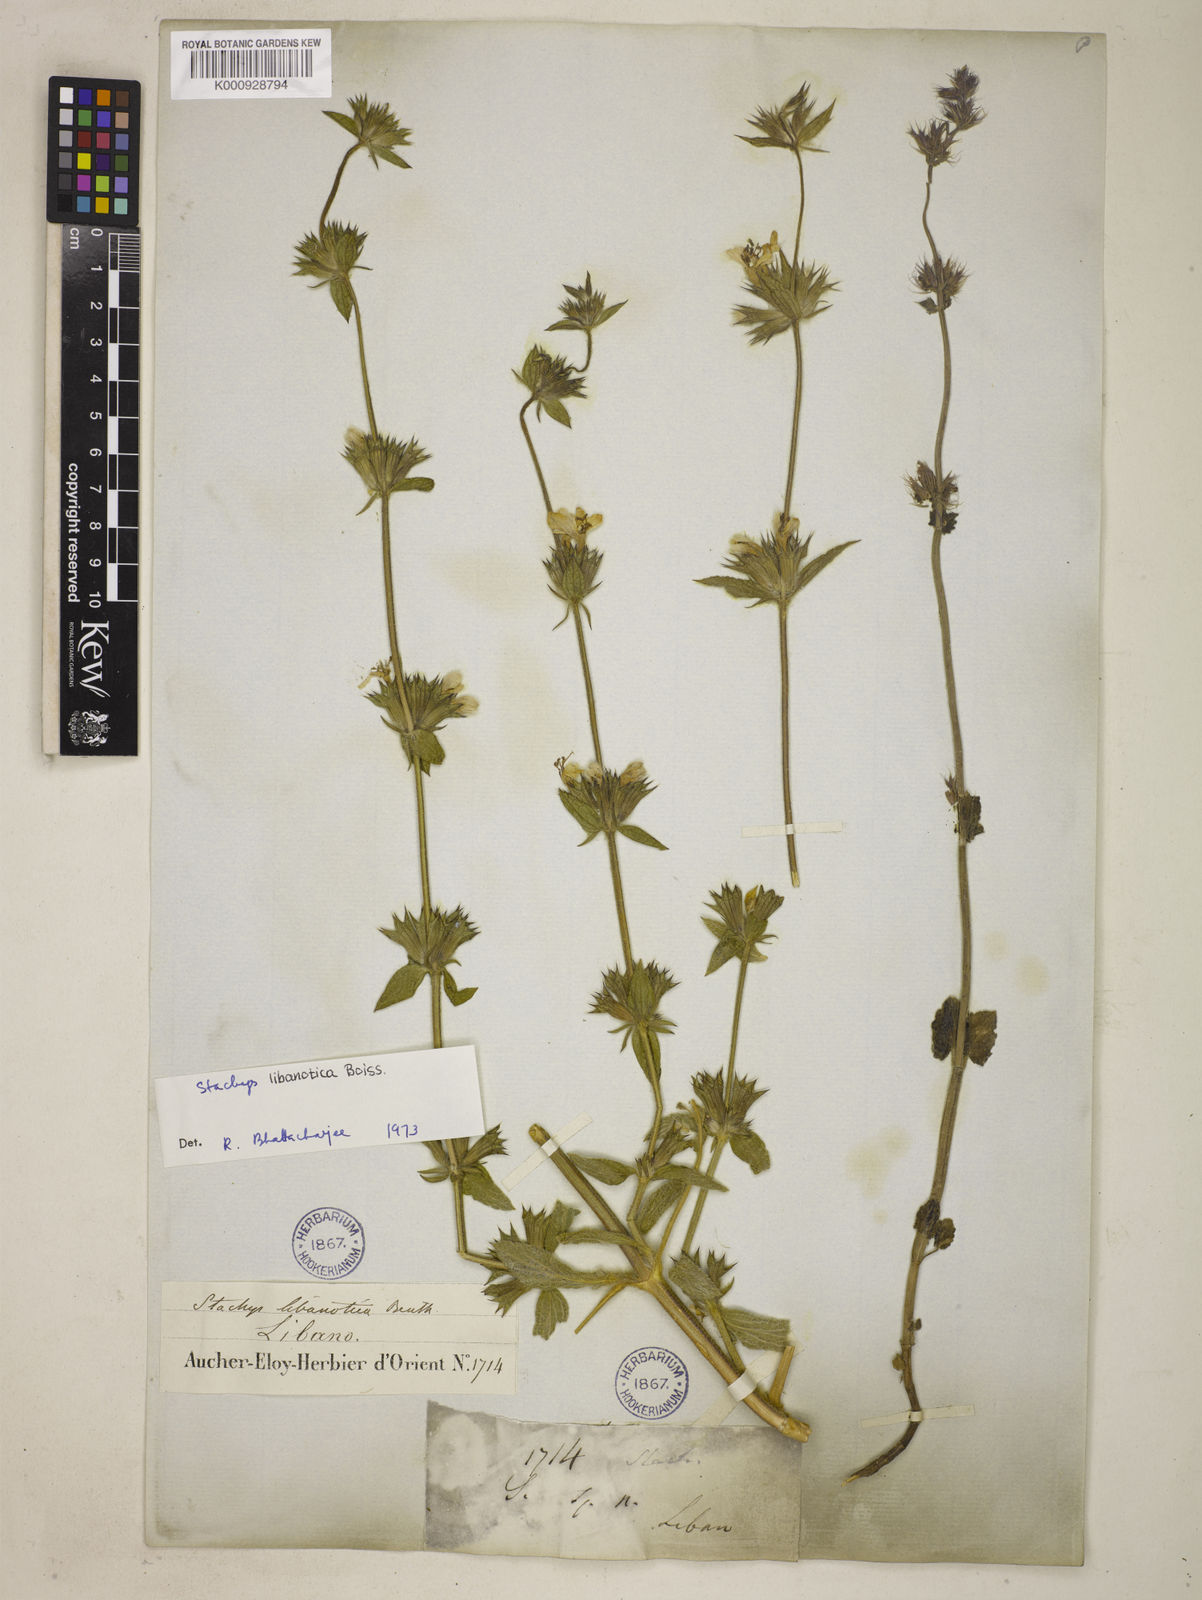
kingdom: Plantae
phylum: Tracheophyta
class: Magnoliopsida
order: Lamiales
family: Lamiaceae
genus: Stachys
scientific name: Stachys libanotica
